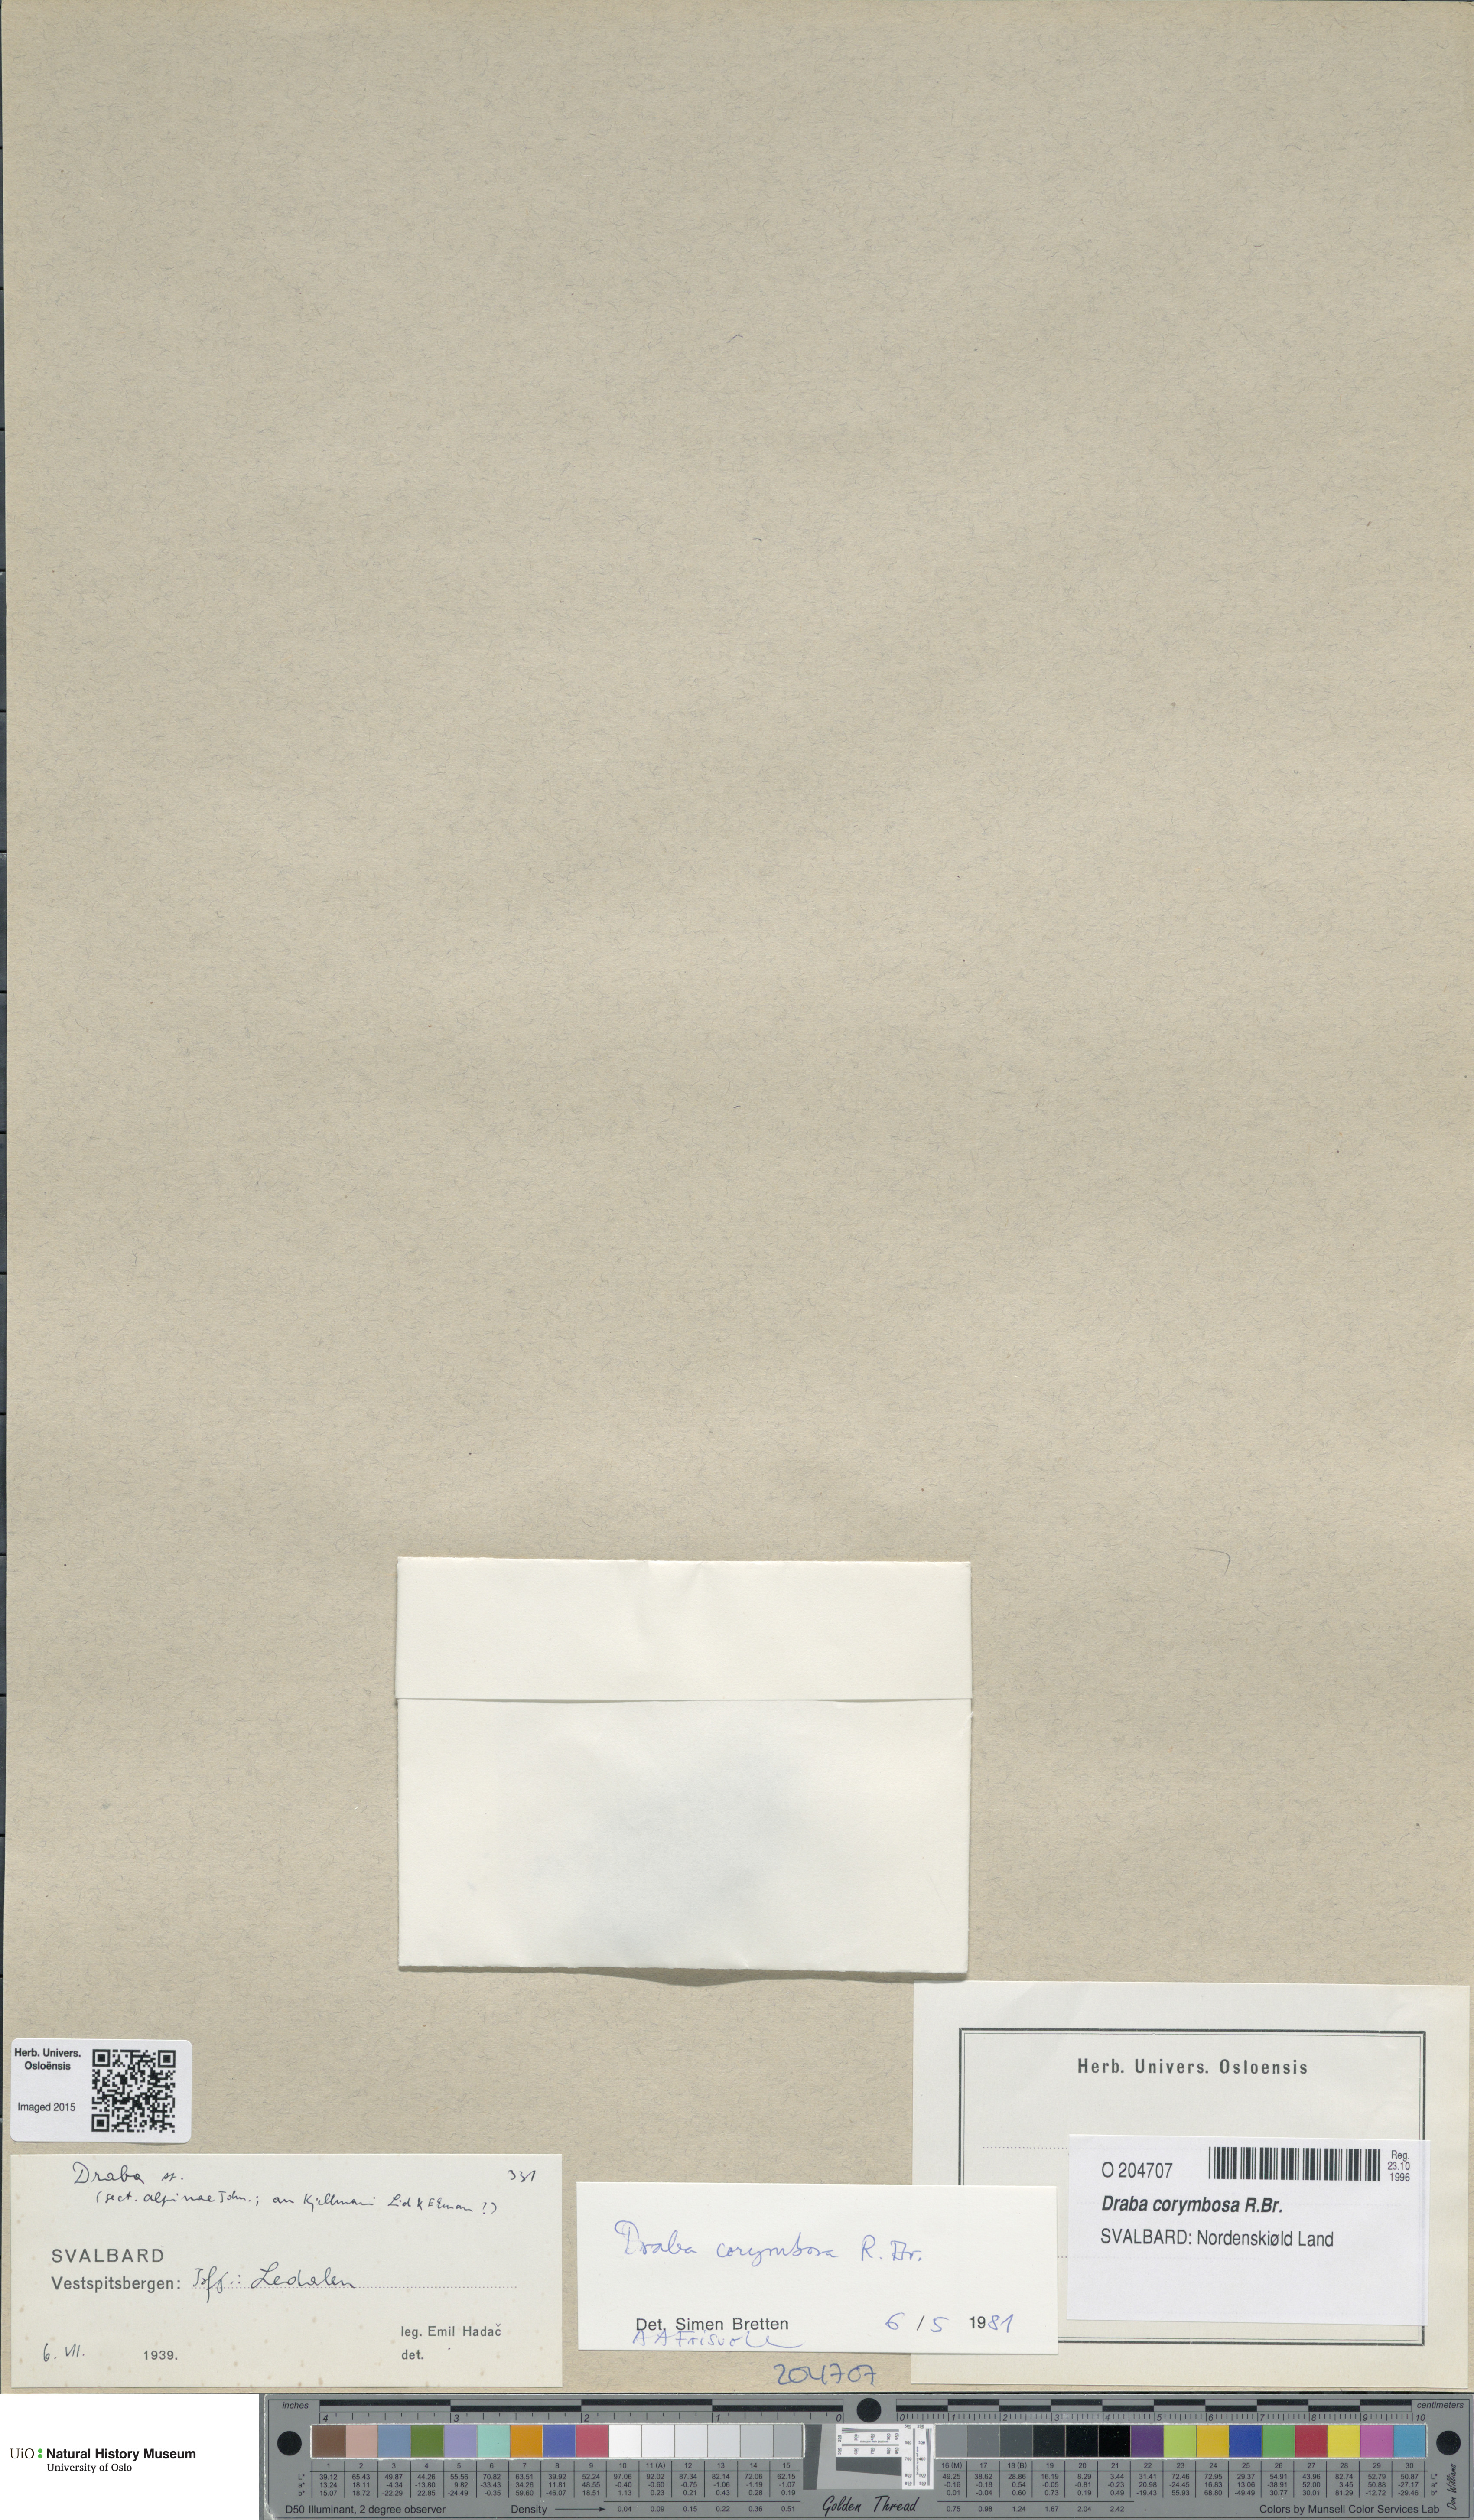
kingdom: Plantae
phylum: Tracheophyta
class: Magnoliopsida
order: Brassicales
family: Brassicaceae
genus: Draba
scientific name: Draba corymbosa
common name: Cushion whitlow-grass
